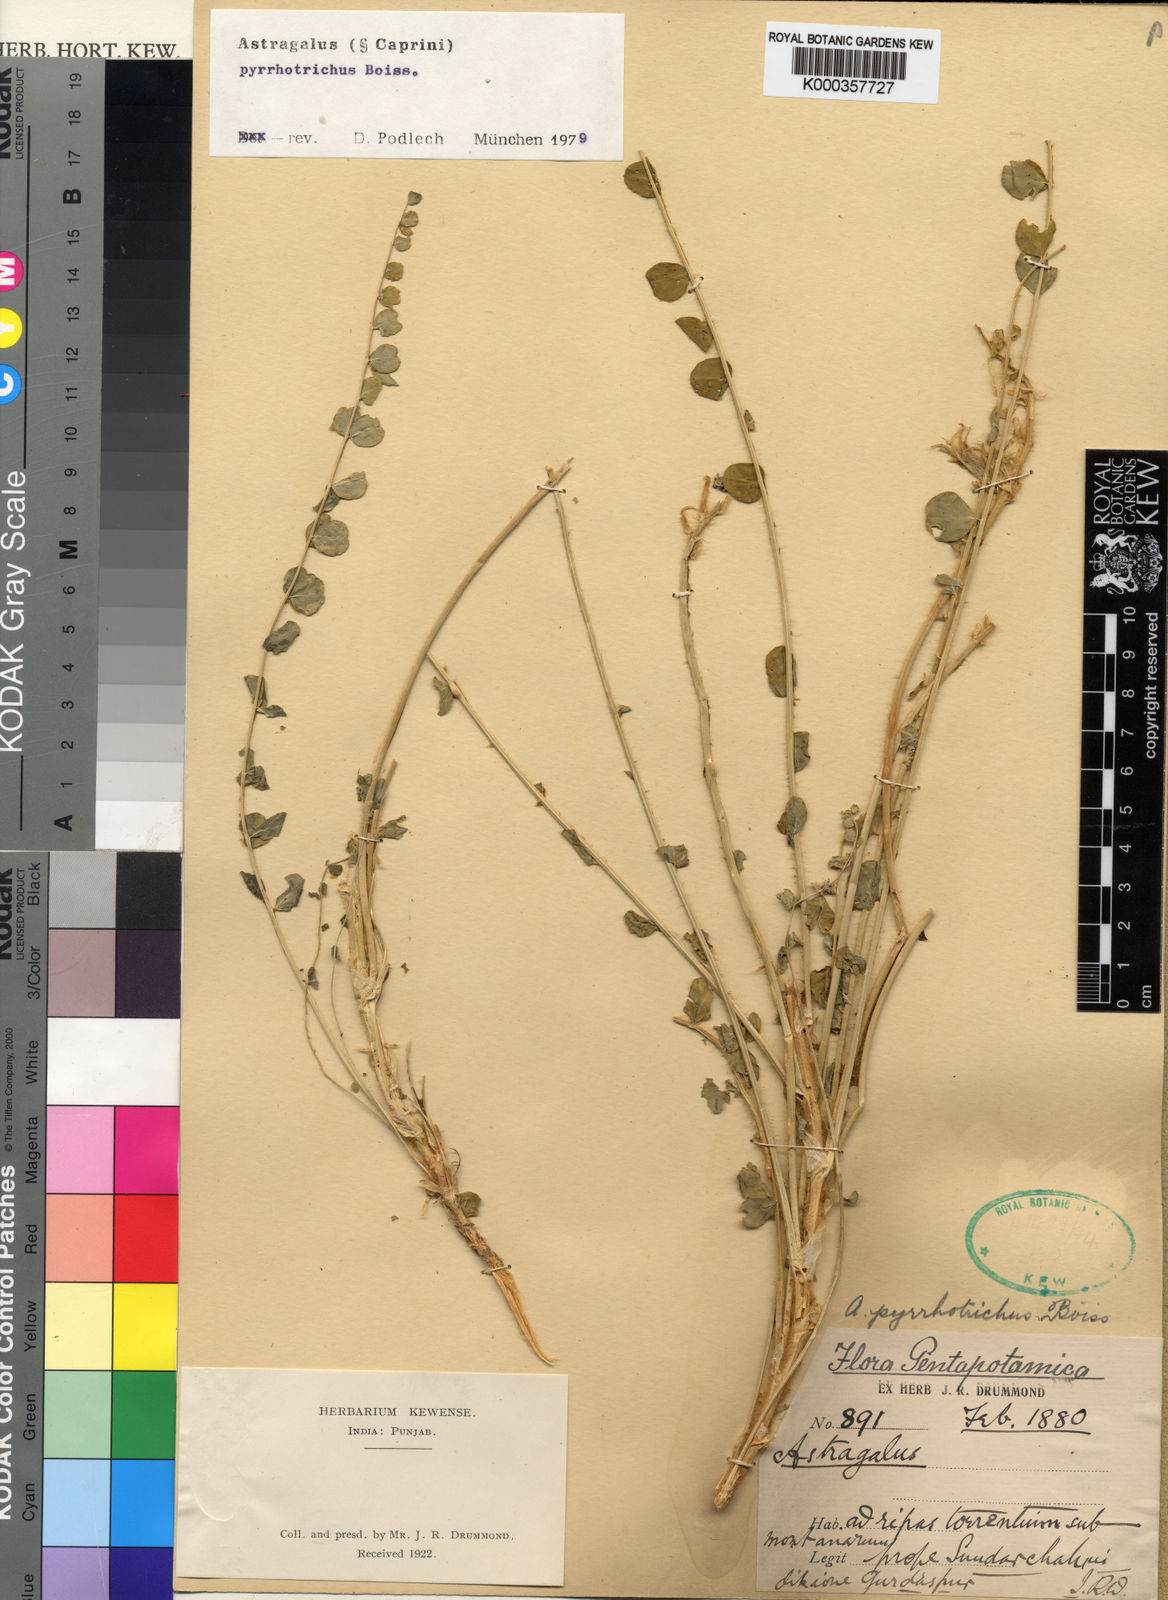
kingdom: Plantae
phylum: Tracheophyta
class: Magnoliopsida
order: Fabales
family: Fabaceae
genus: Astragalus
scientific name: Astragalus pyrrhotrichus
